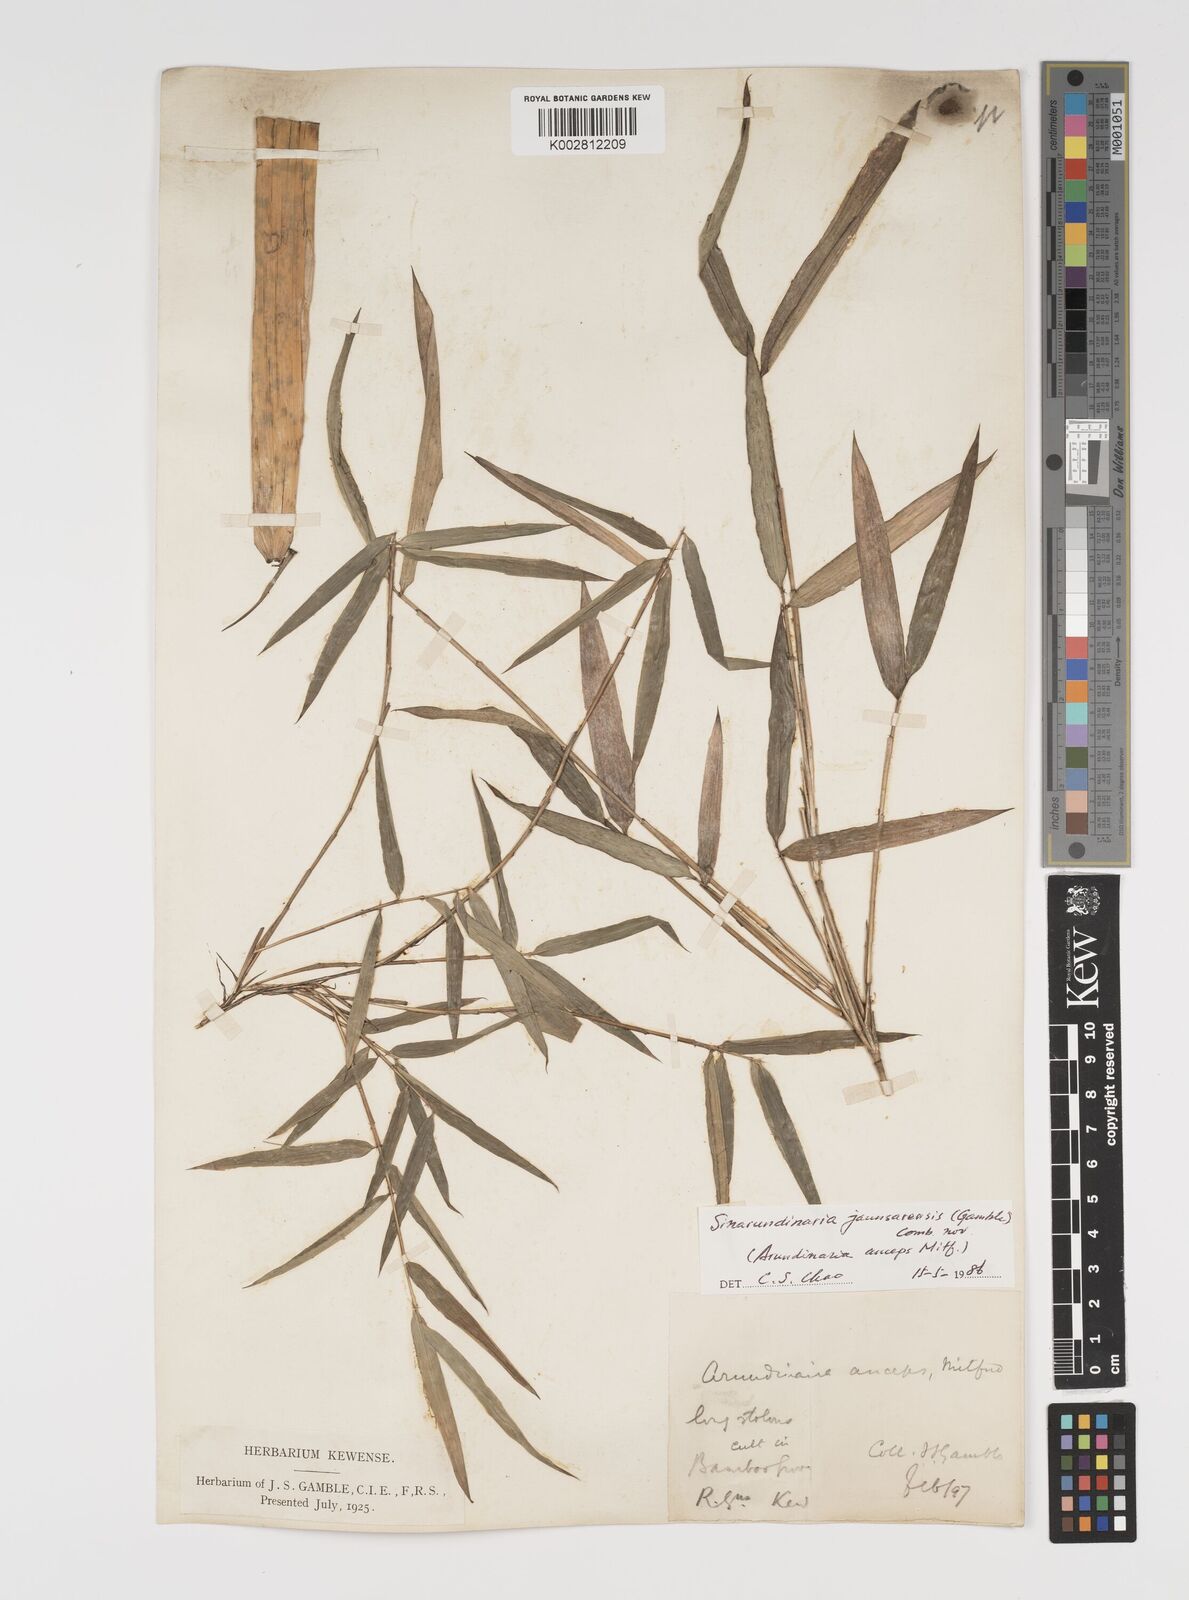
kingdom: Plantae
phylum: Tracheophyta
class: Liliopsida
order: Poales
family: Poaceae
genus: Yushania
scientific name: Yushania anceps
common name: Indian fountain-bamboo
